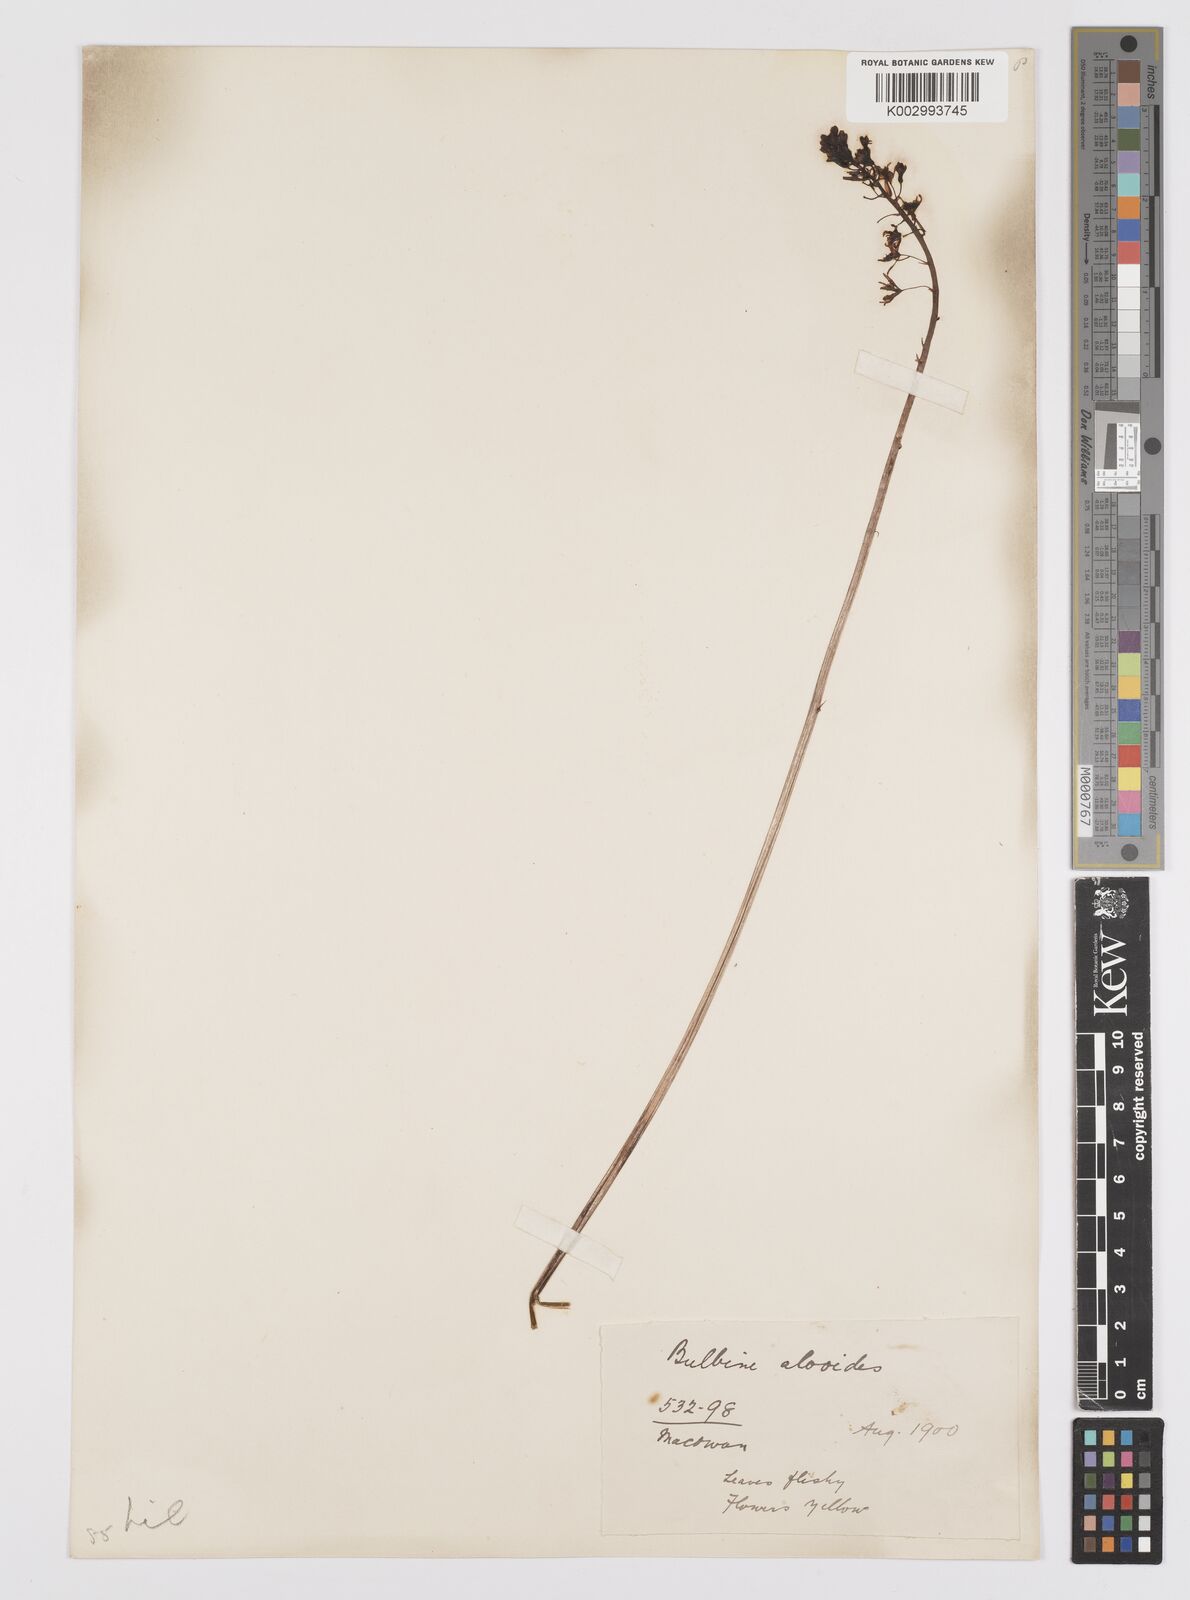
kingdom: Plantae
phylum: Tracheophyta
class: Liliopsida
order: Asparagales
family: Asphodelaceae
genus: Bulbine
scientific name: Bulbine
